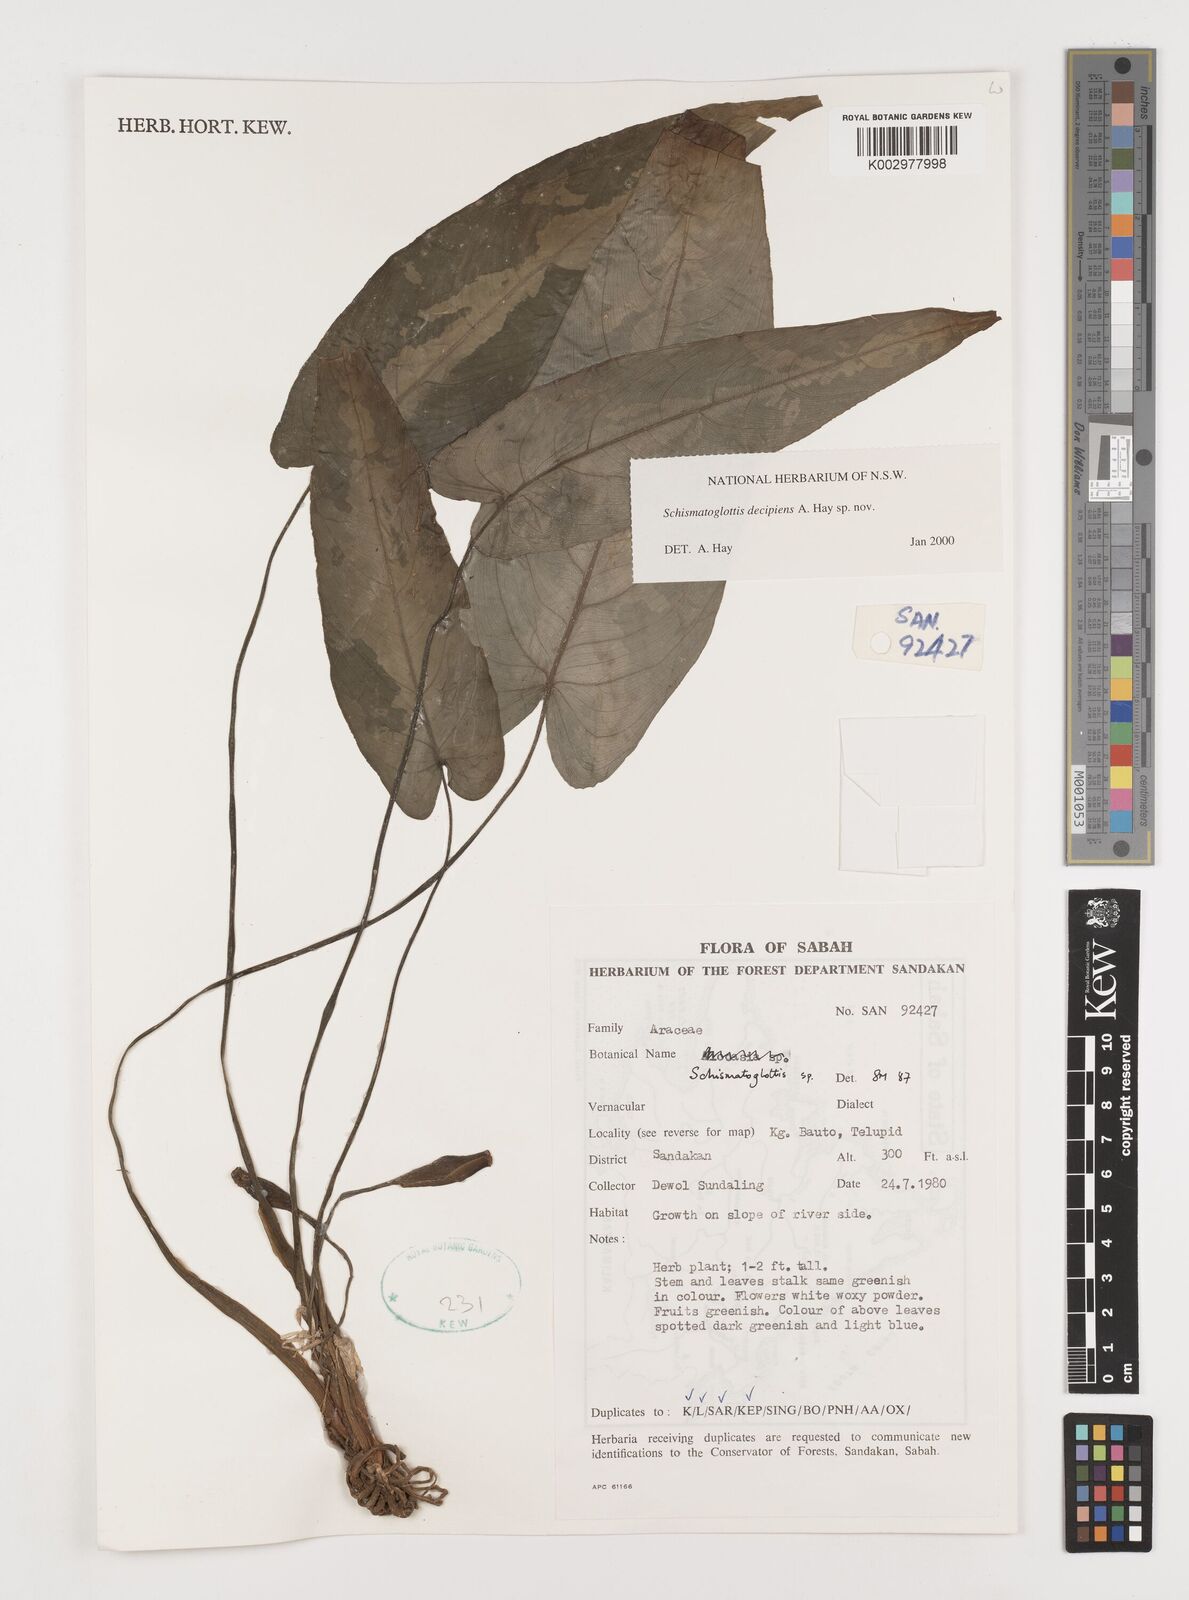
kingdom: Plantae
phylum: Tracheophyta
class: Liliopsida
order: Alismatales
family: Araceae
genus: Schismatoglottis
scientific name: Schismatoglottis decipiens
